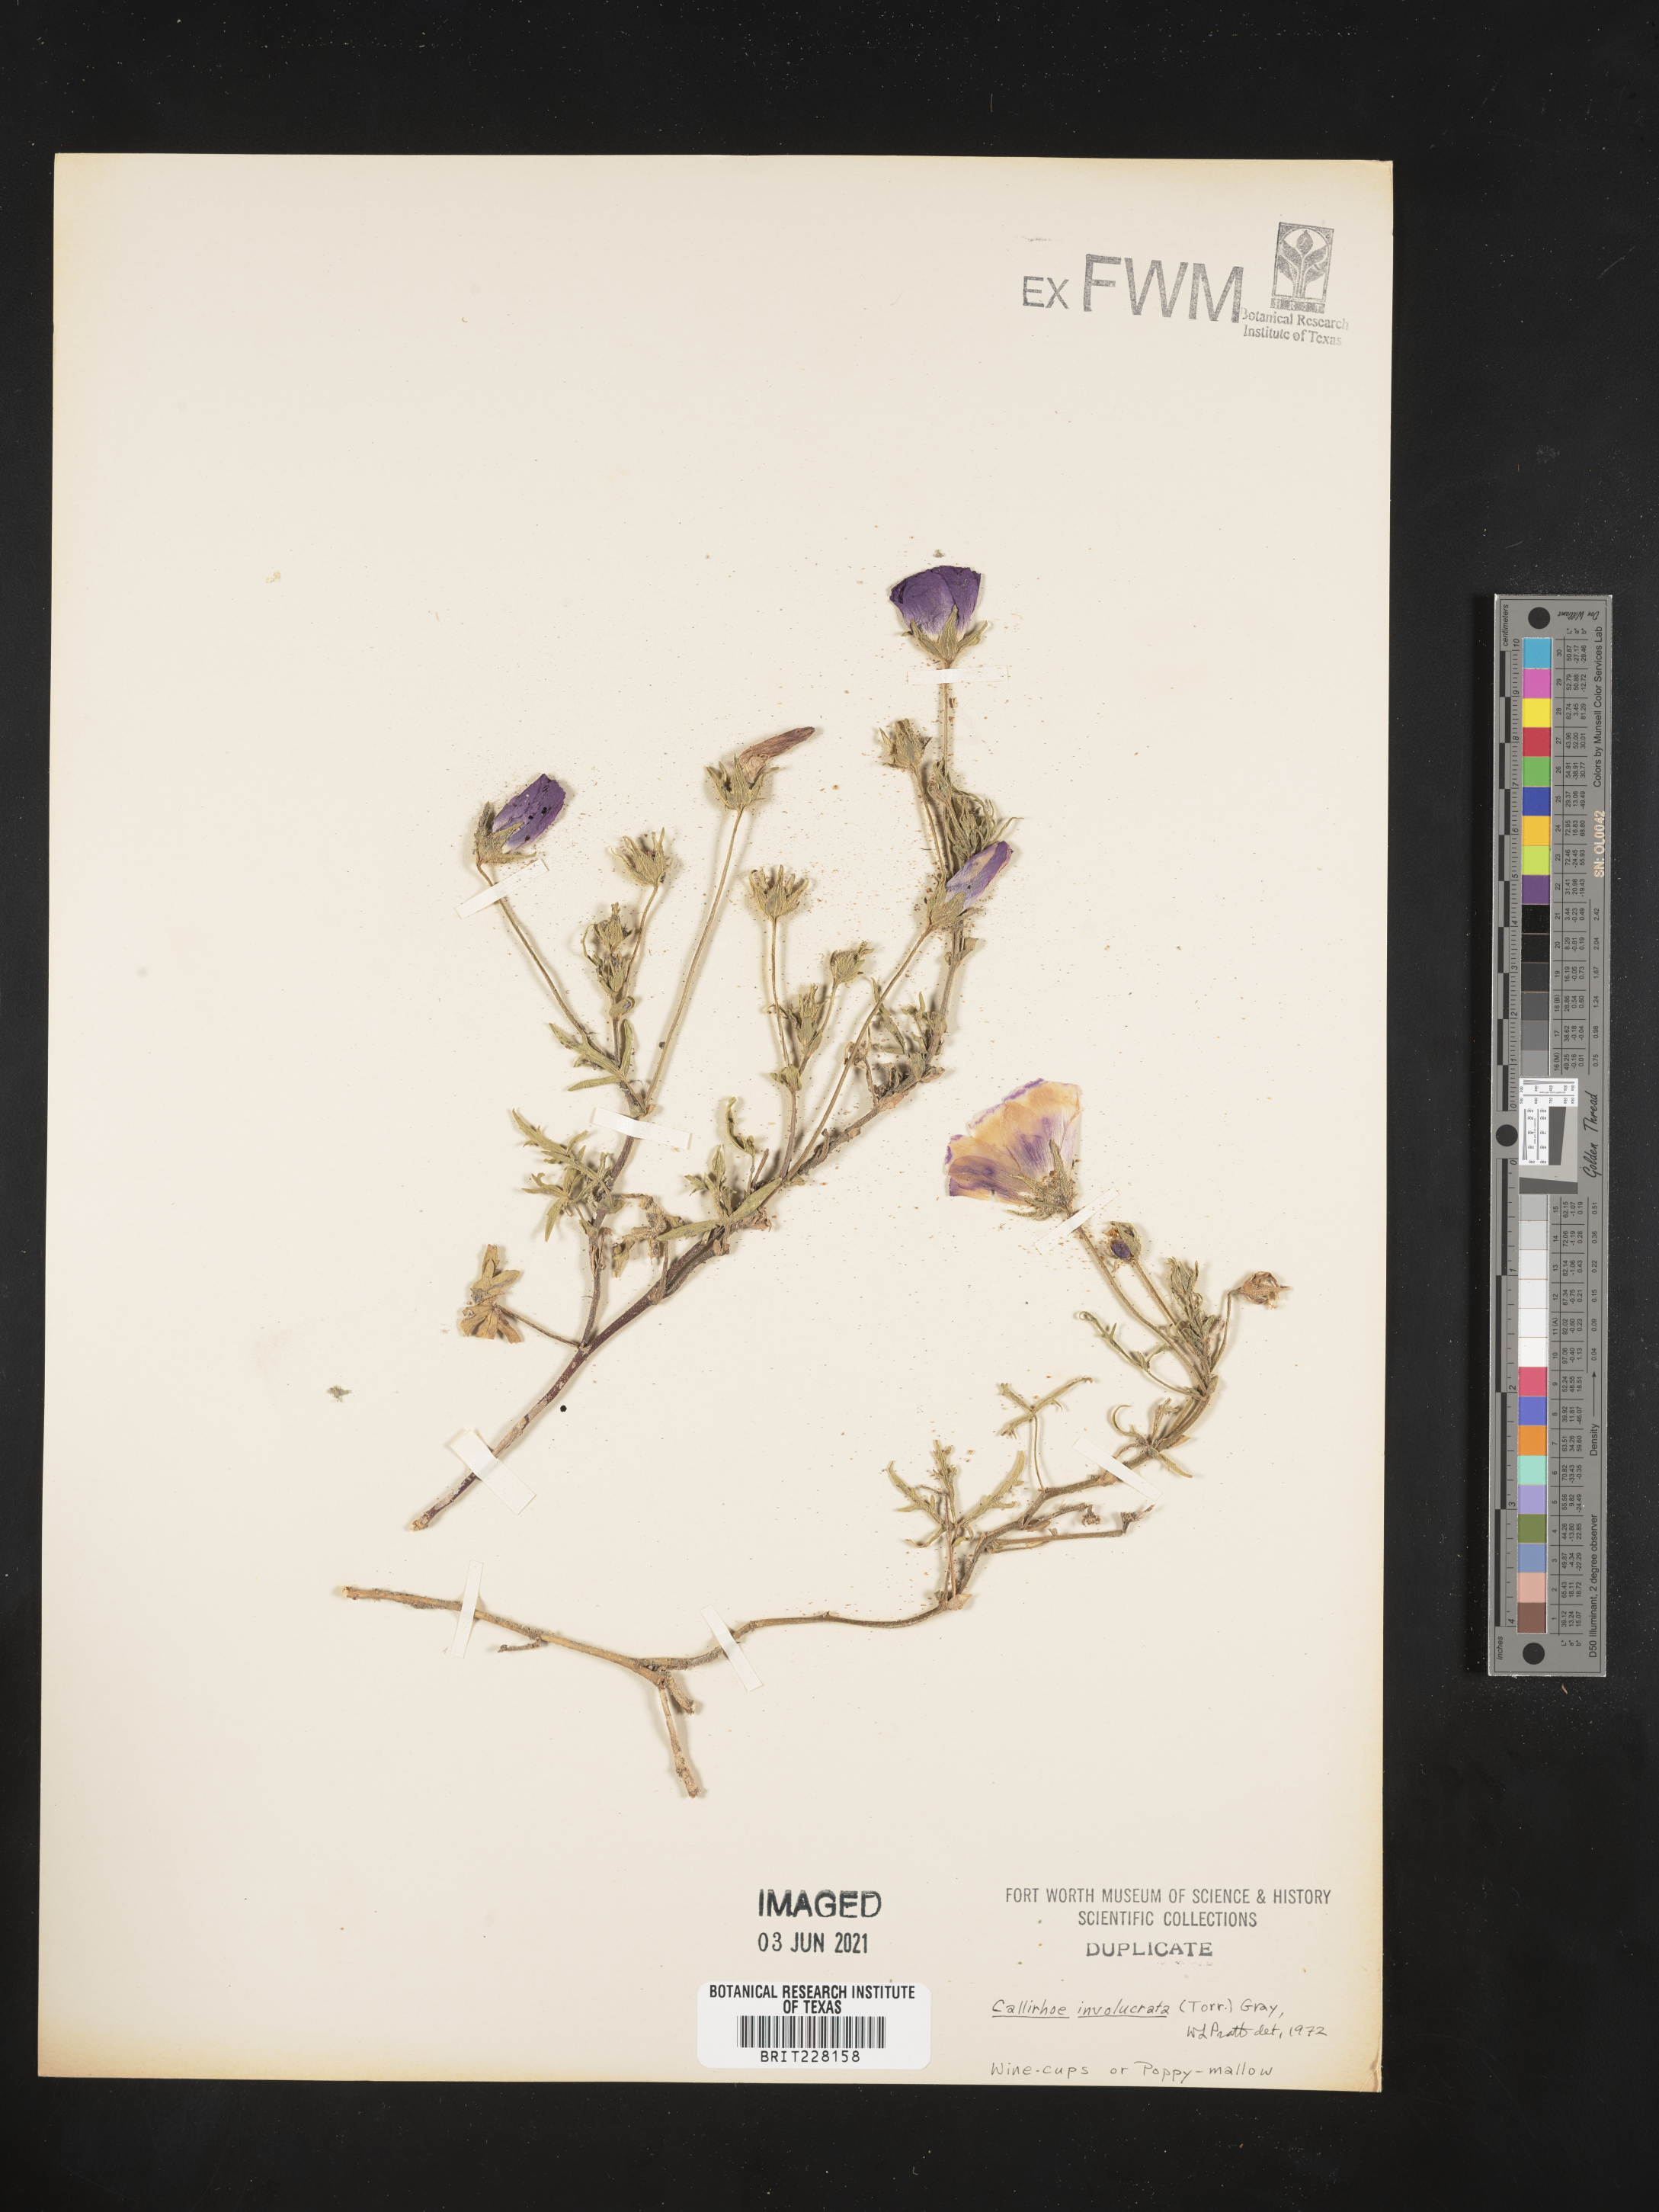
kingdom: Plantae
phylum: Tracheophyta
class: Magnoliopsida
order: Malvales
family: Malvaceae
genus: Callirhoe
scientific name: Callirhoe involucrata
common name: Purple poppy-mallow
